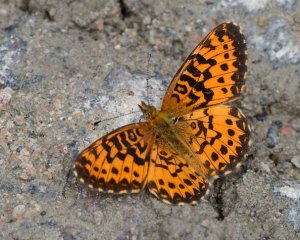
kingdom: Animalia
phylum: Arthropoda
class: Insecta
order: Lepidoptera
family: Nymphalidae
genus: Boloria
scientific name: Boloria chariclea
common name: Arctic Fritillary
